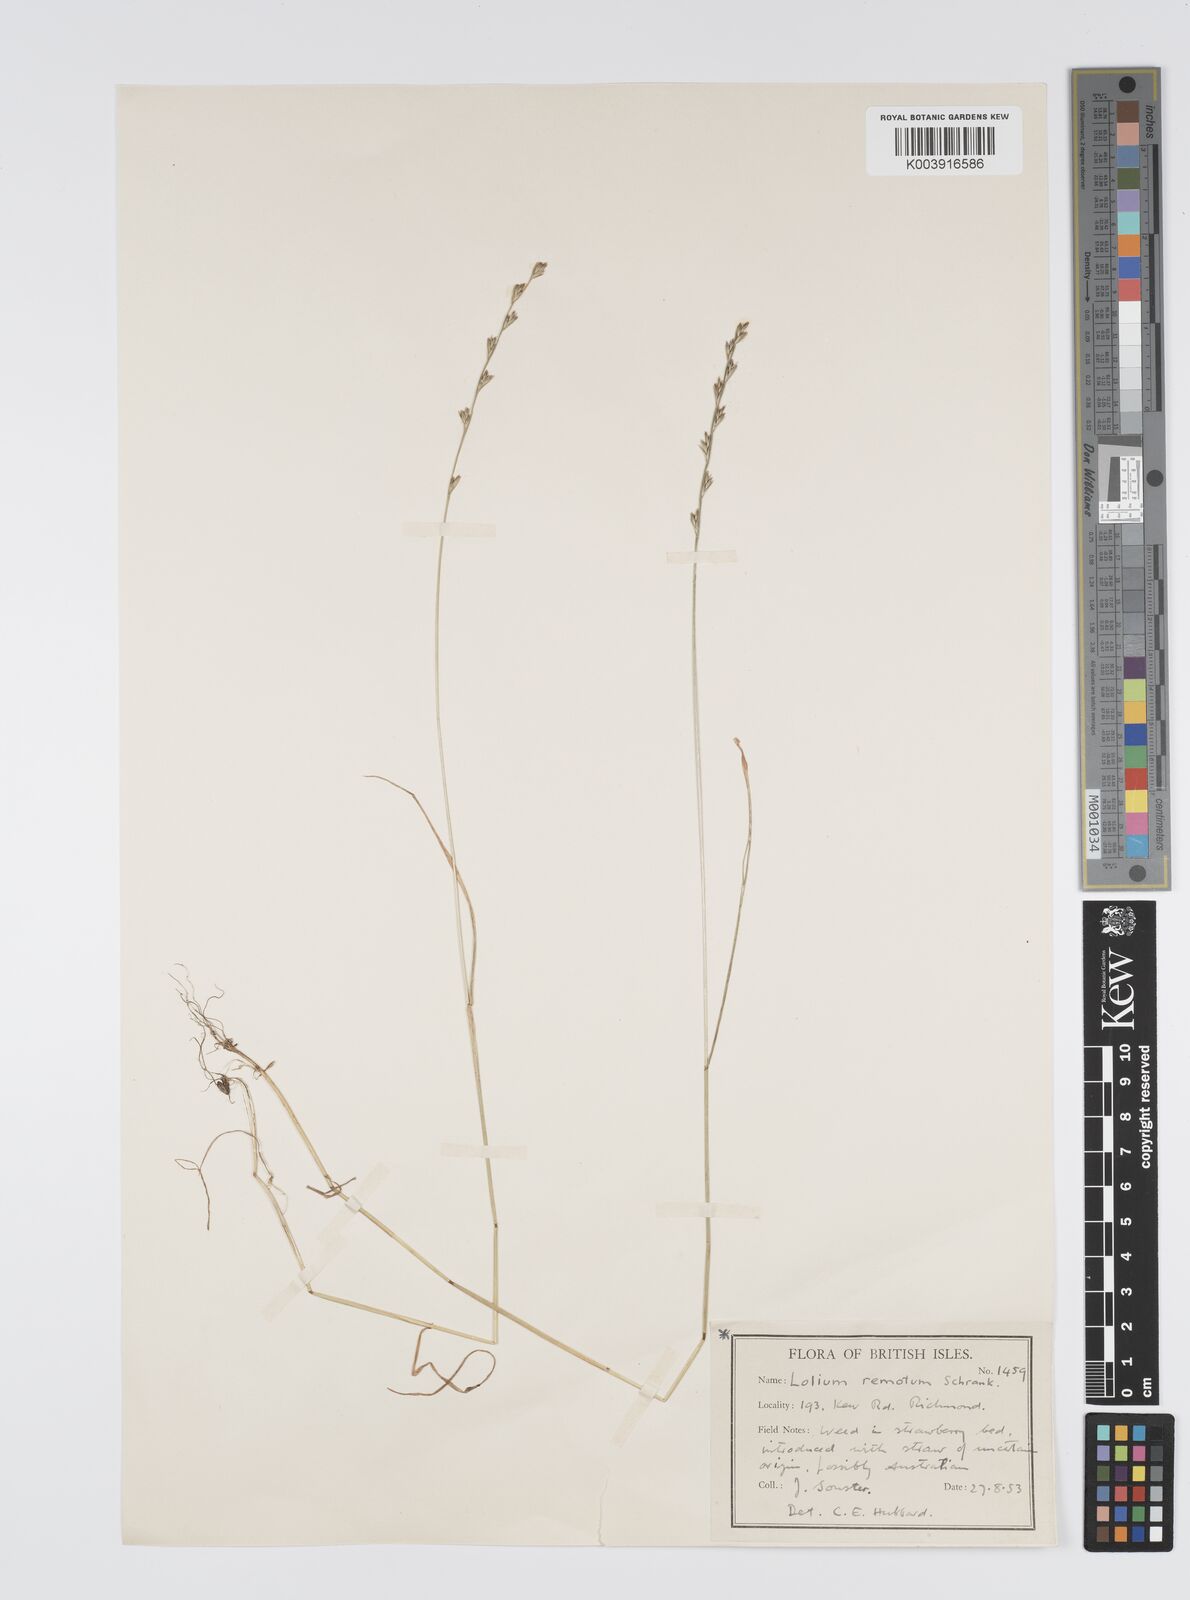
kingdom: Plantae
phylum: Tracheophyta
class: Liliopsida
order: Poales
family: Poaceae
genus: Lolium
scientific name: Lolium remotum
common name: Flaxfield rye-grass
